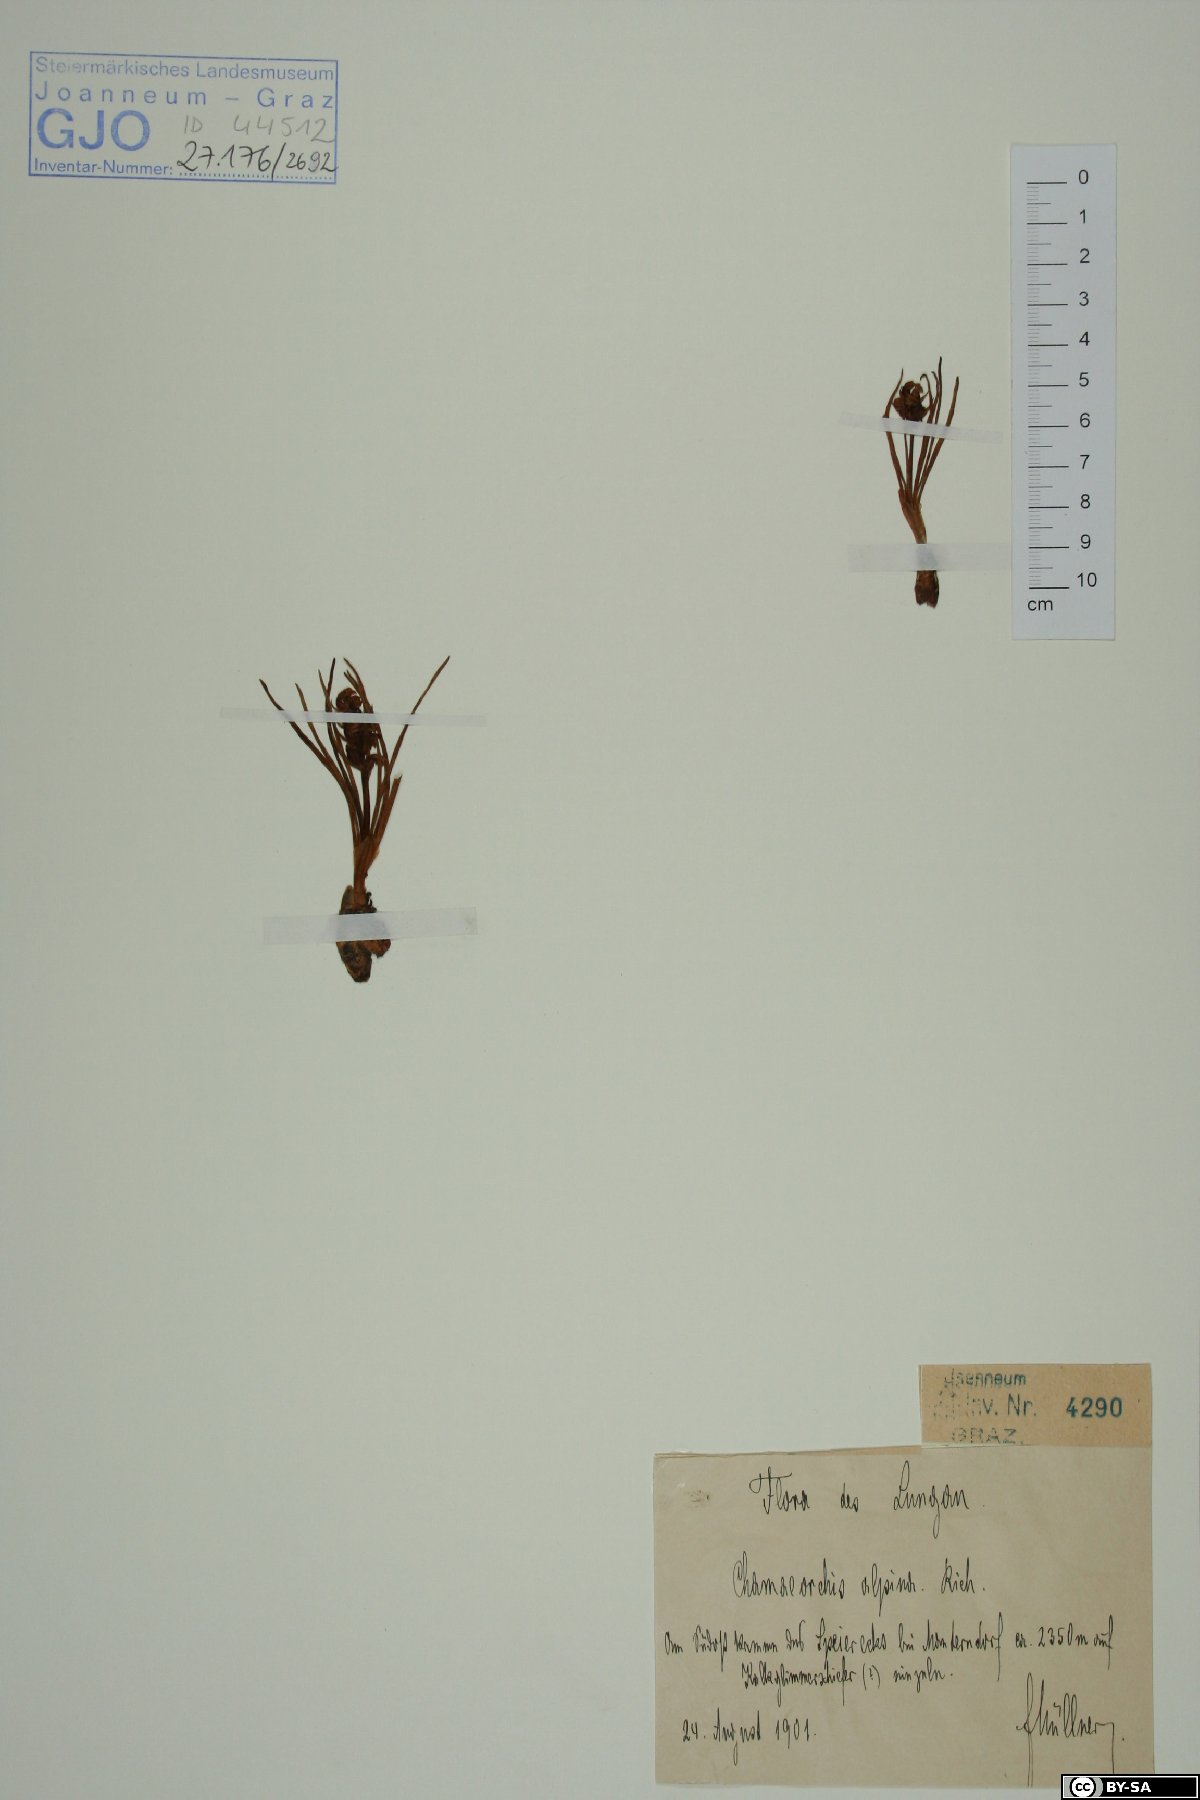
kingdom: Plantae
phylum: Tracheophyta
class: Liliopsida
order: Asparagales
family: Orchidaceae
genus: Chamorchis
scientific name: Chamorchis alpina
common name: Alpine chamorchis
